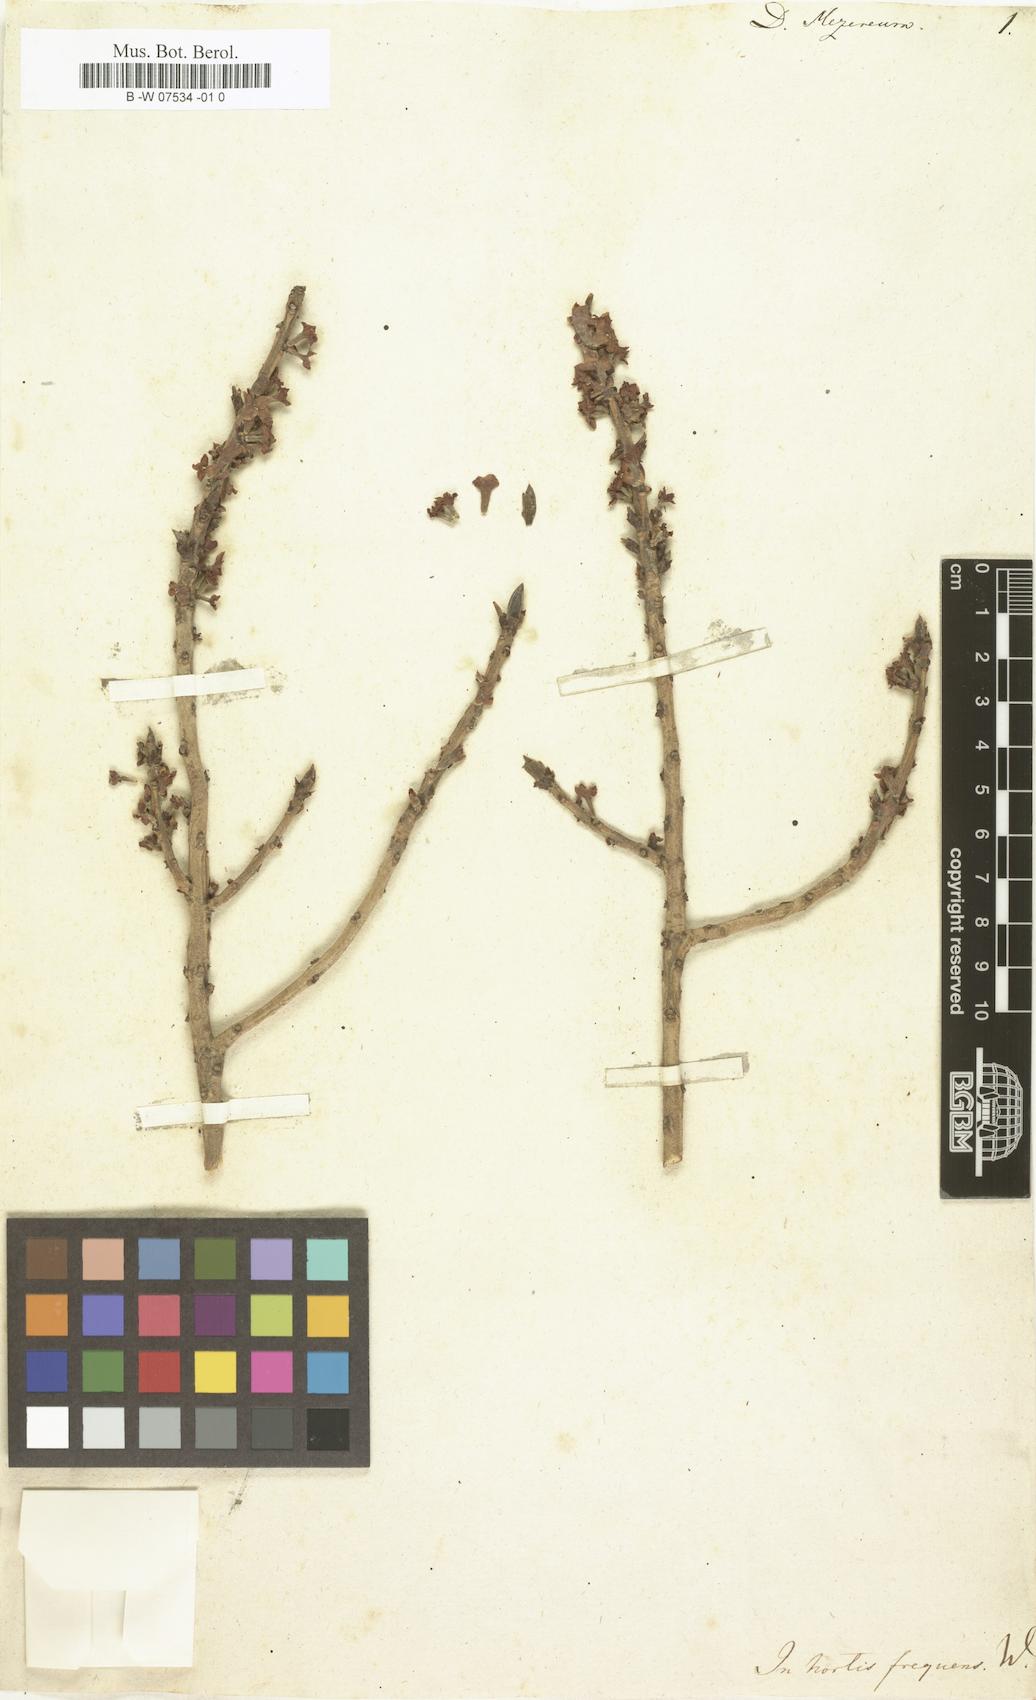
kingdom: Plantae
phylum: Tracheophyta
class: Magnoliopsida
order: Malvales
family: Thymelaeaceae
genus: Daphne
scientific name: Daphne mezereum
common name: Mezereon
